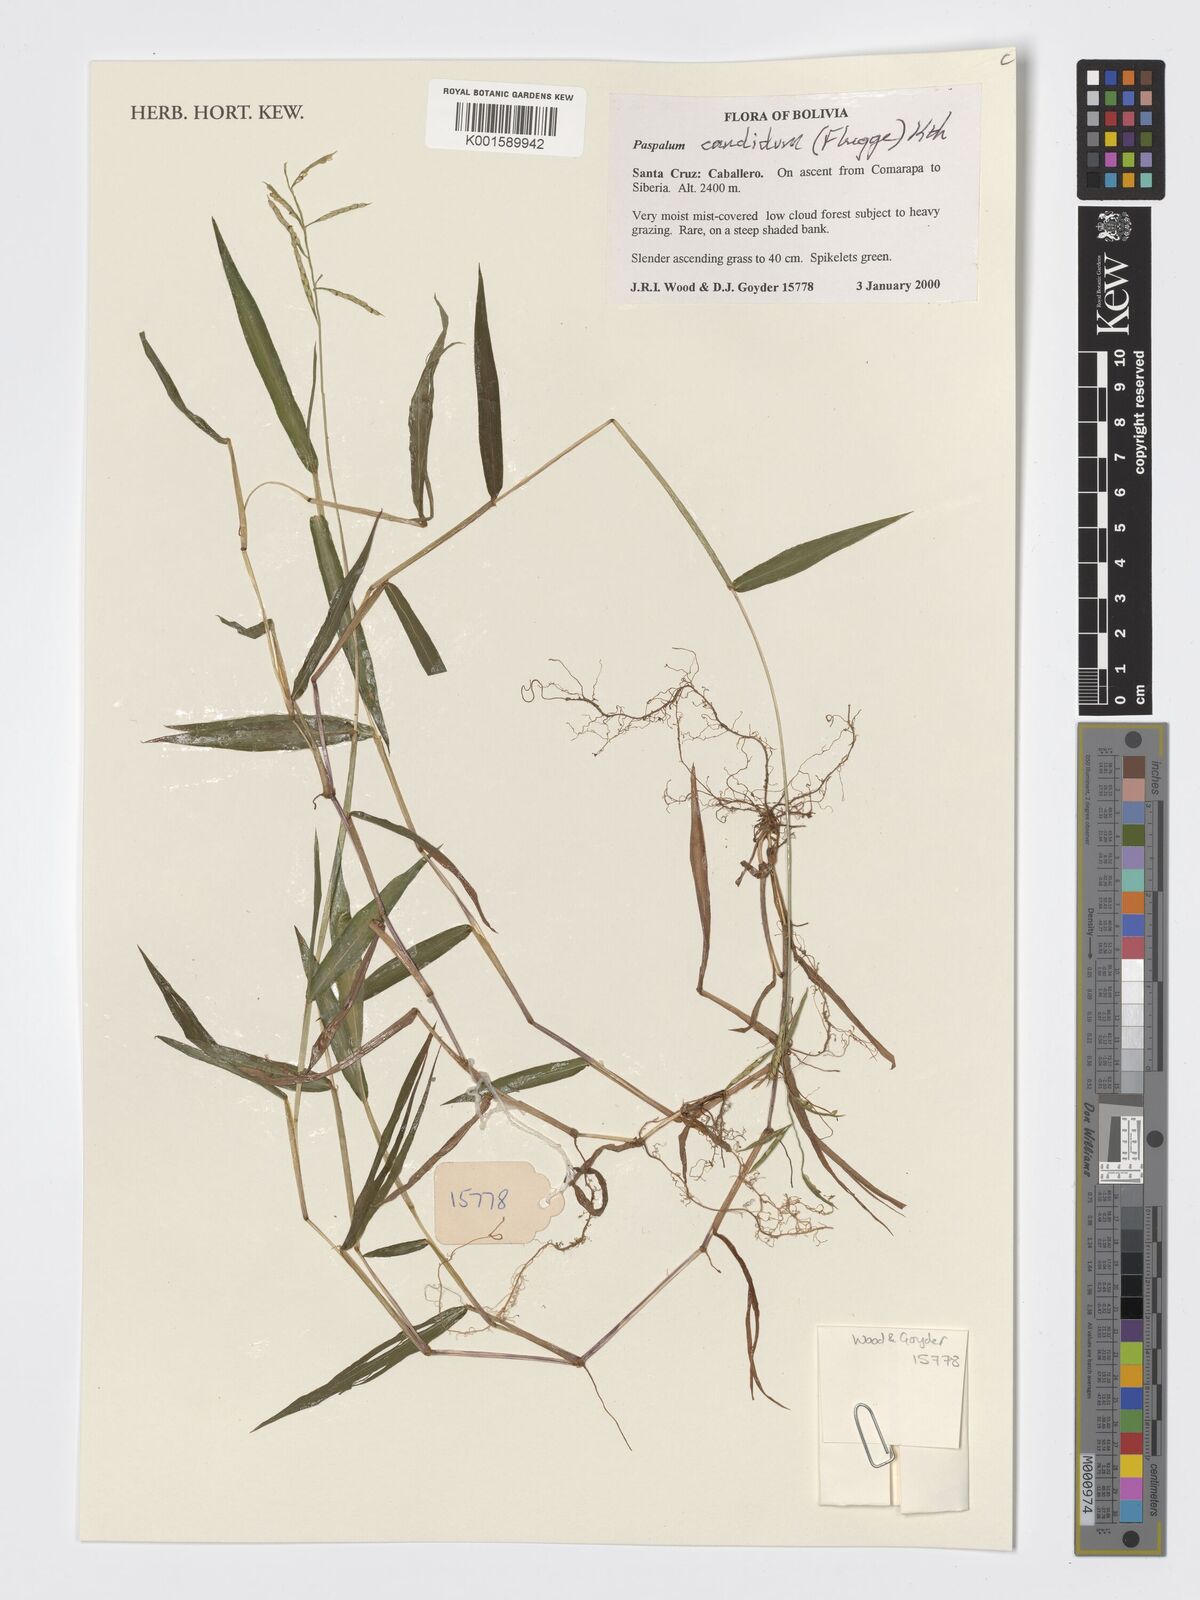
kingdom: Plantae
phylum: Tracheophyta
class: Liliopsida
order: Poales
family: Poaceae
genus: Paspalum
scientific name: Paspalum candidum
